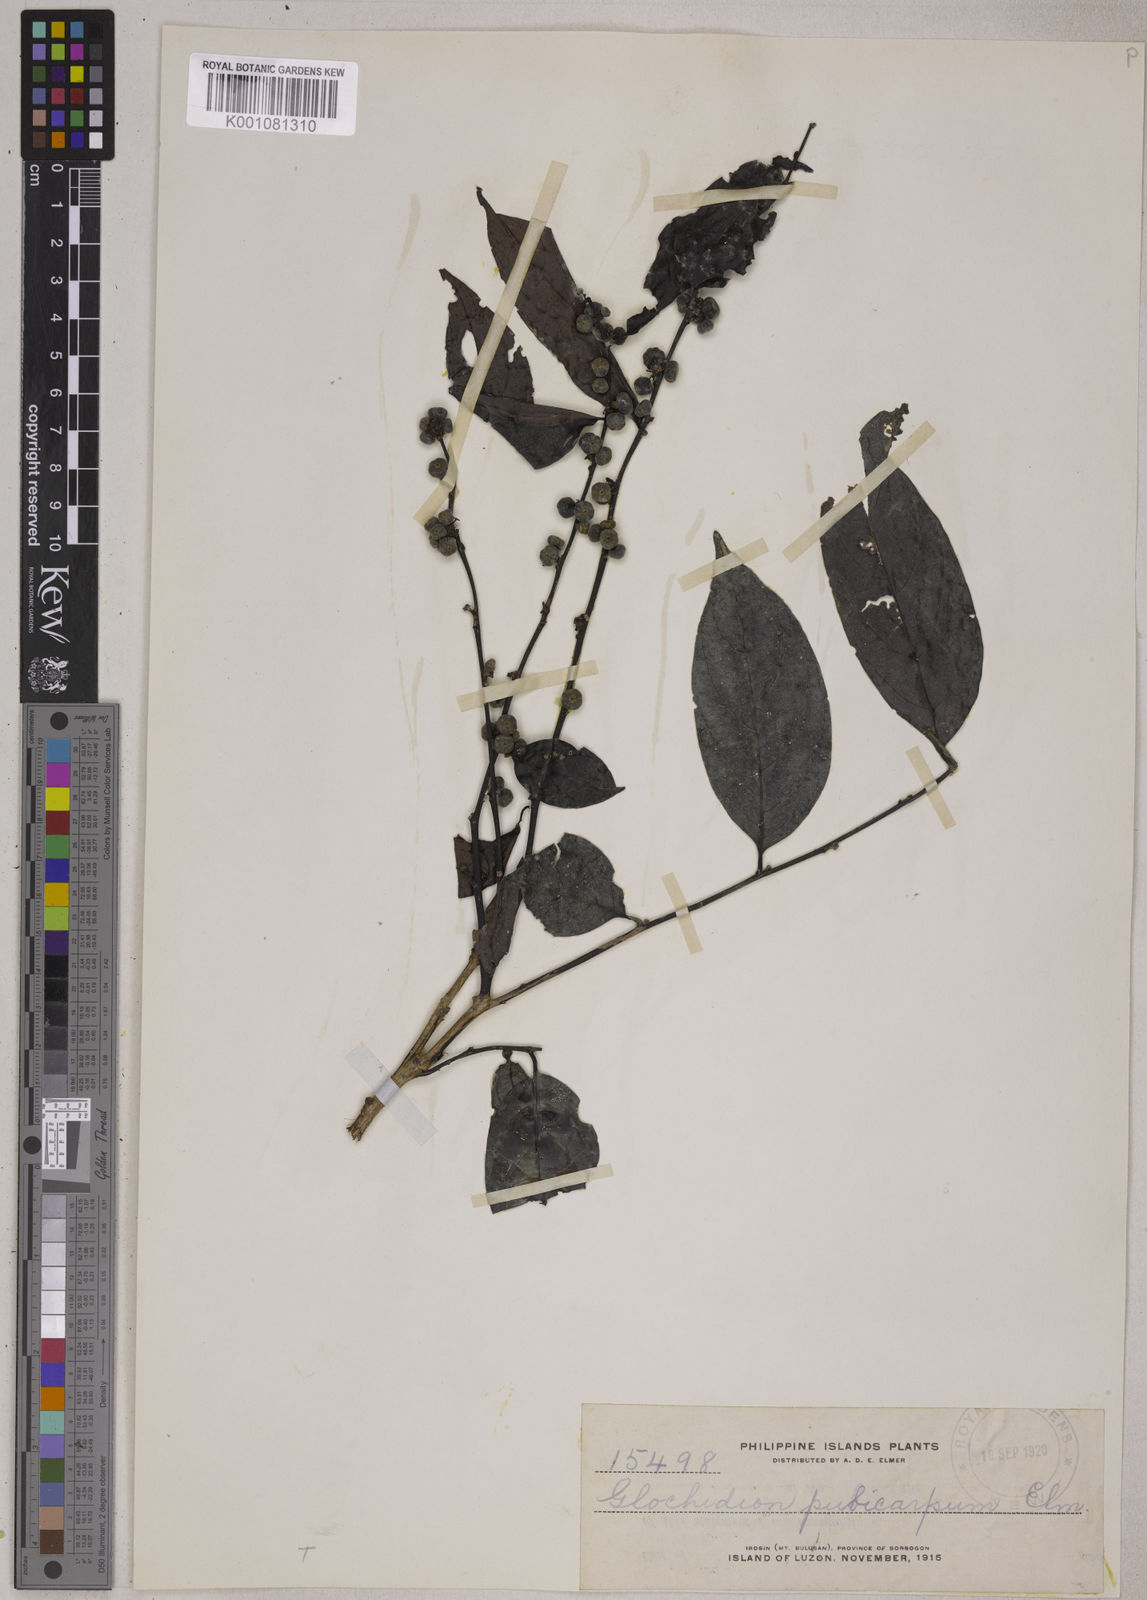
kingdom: Plantae
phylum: Tracheophyta
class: Magnoliopsida
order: Malpighiales
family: Phyllanthaceae
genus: Glochidion
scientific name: Glochidion pubicapsa
